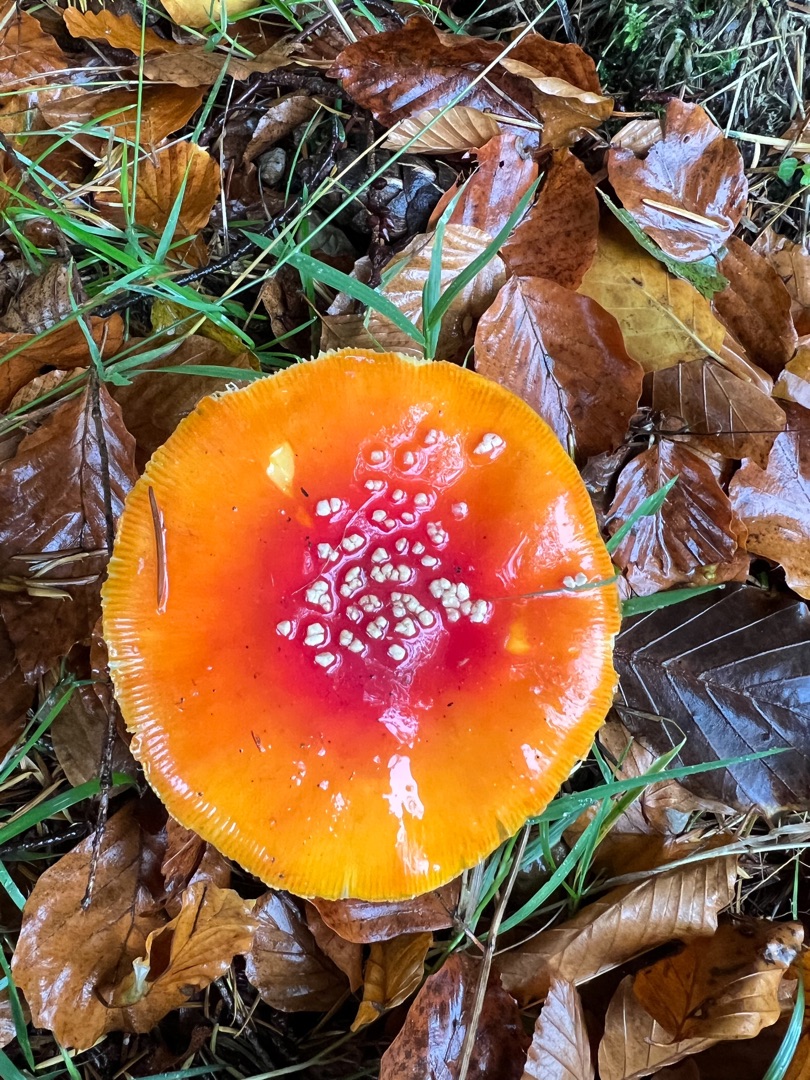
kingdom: Fungi
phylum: Basidiomycota
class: Agaricomycetes
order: Agaricales
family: Amanitaceae
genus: Amanita
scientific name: Amanita muscaria
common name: Rød fluesvamp
